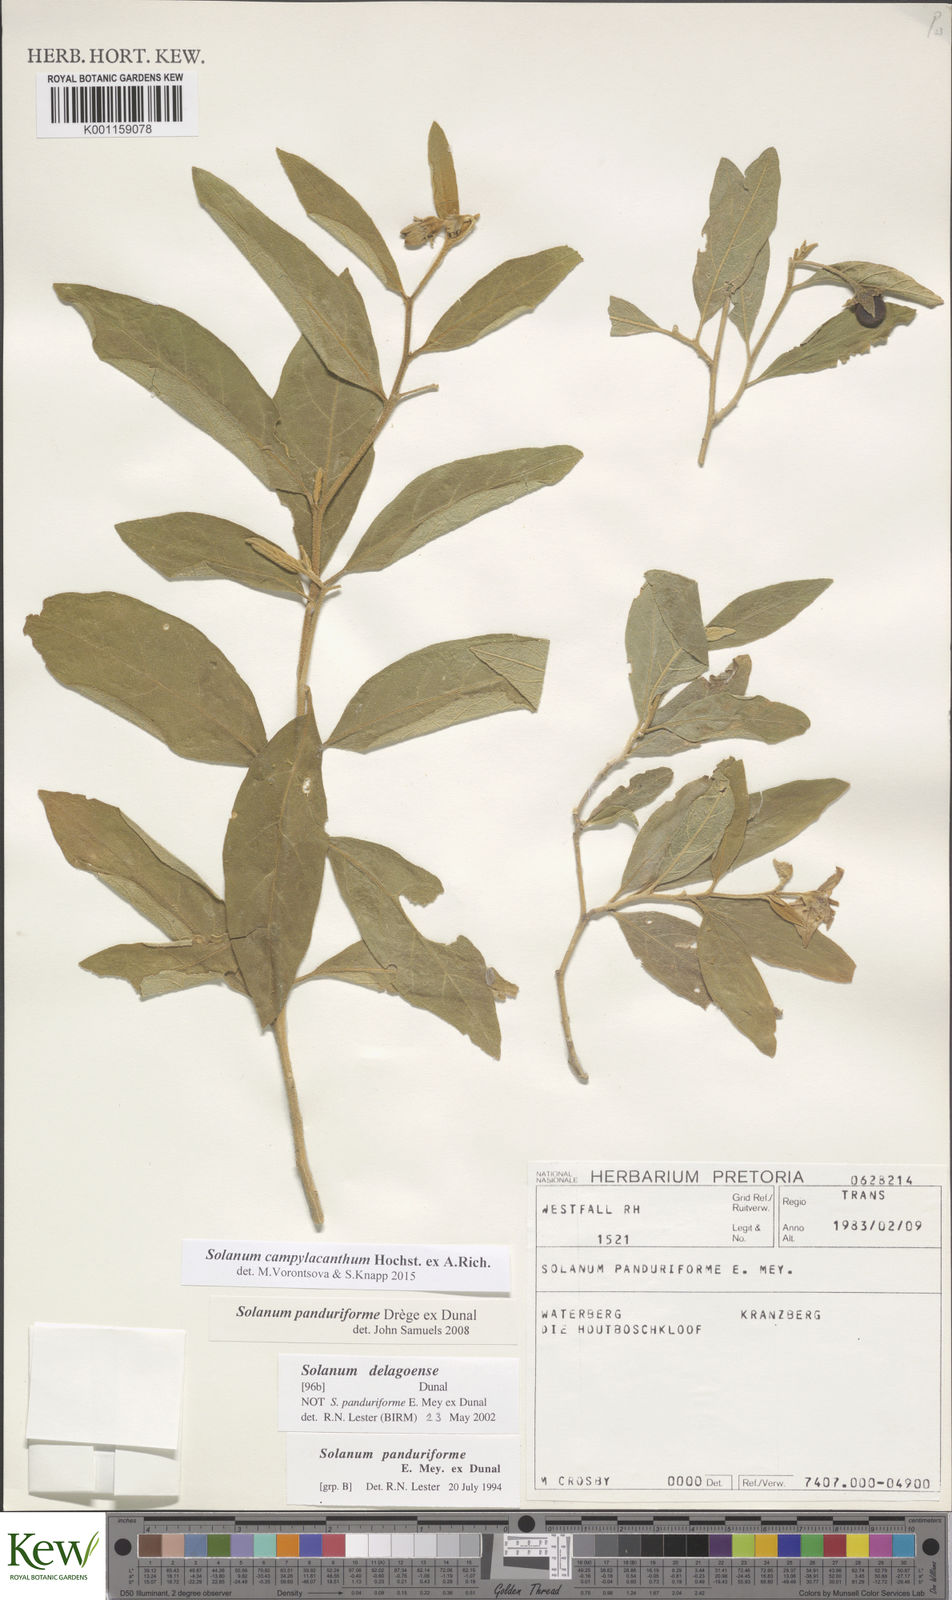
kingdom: Plantae
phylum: Tracheophyta
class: Magnoliopsida
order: Solanales
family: Solanaceae
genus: Solanum
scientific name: Solanum campylacanthum
